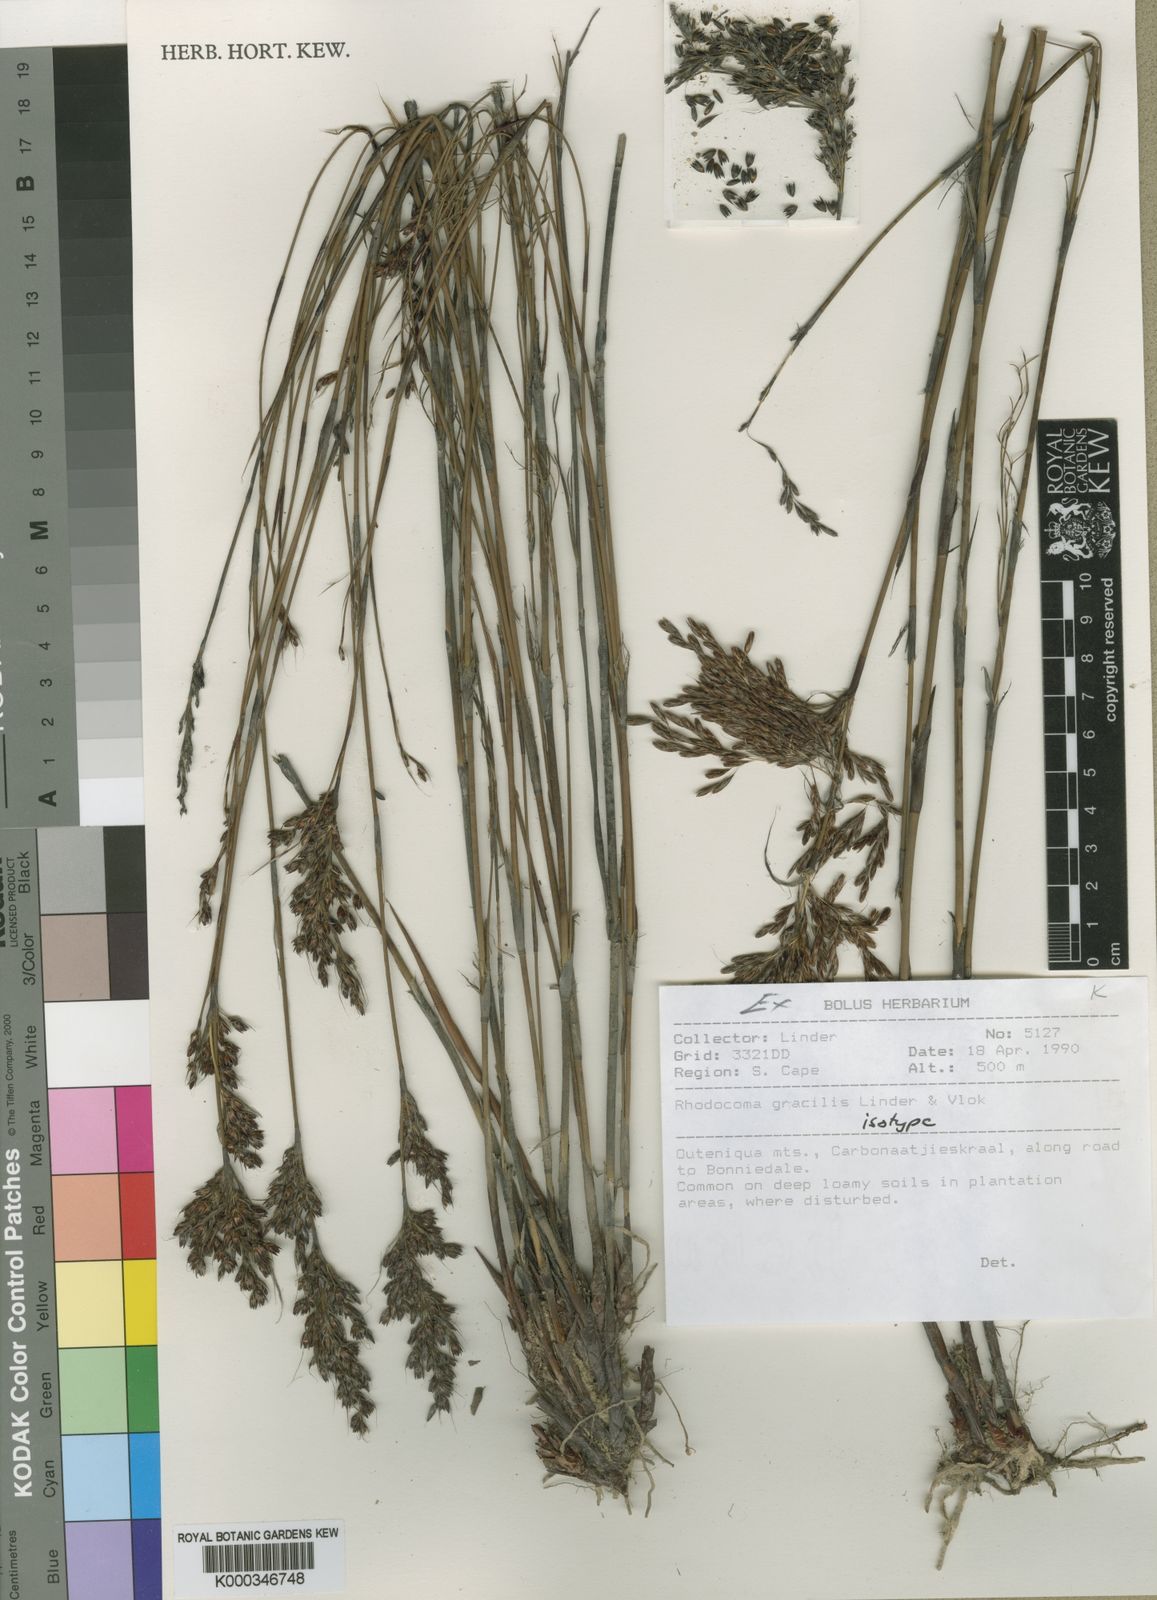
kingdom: Plantae
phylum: Tracheophyta
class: Liliopsida
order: Poales
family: Restionaceae
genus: Rhodocoma
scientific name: Rhodocoma gracilis
